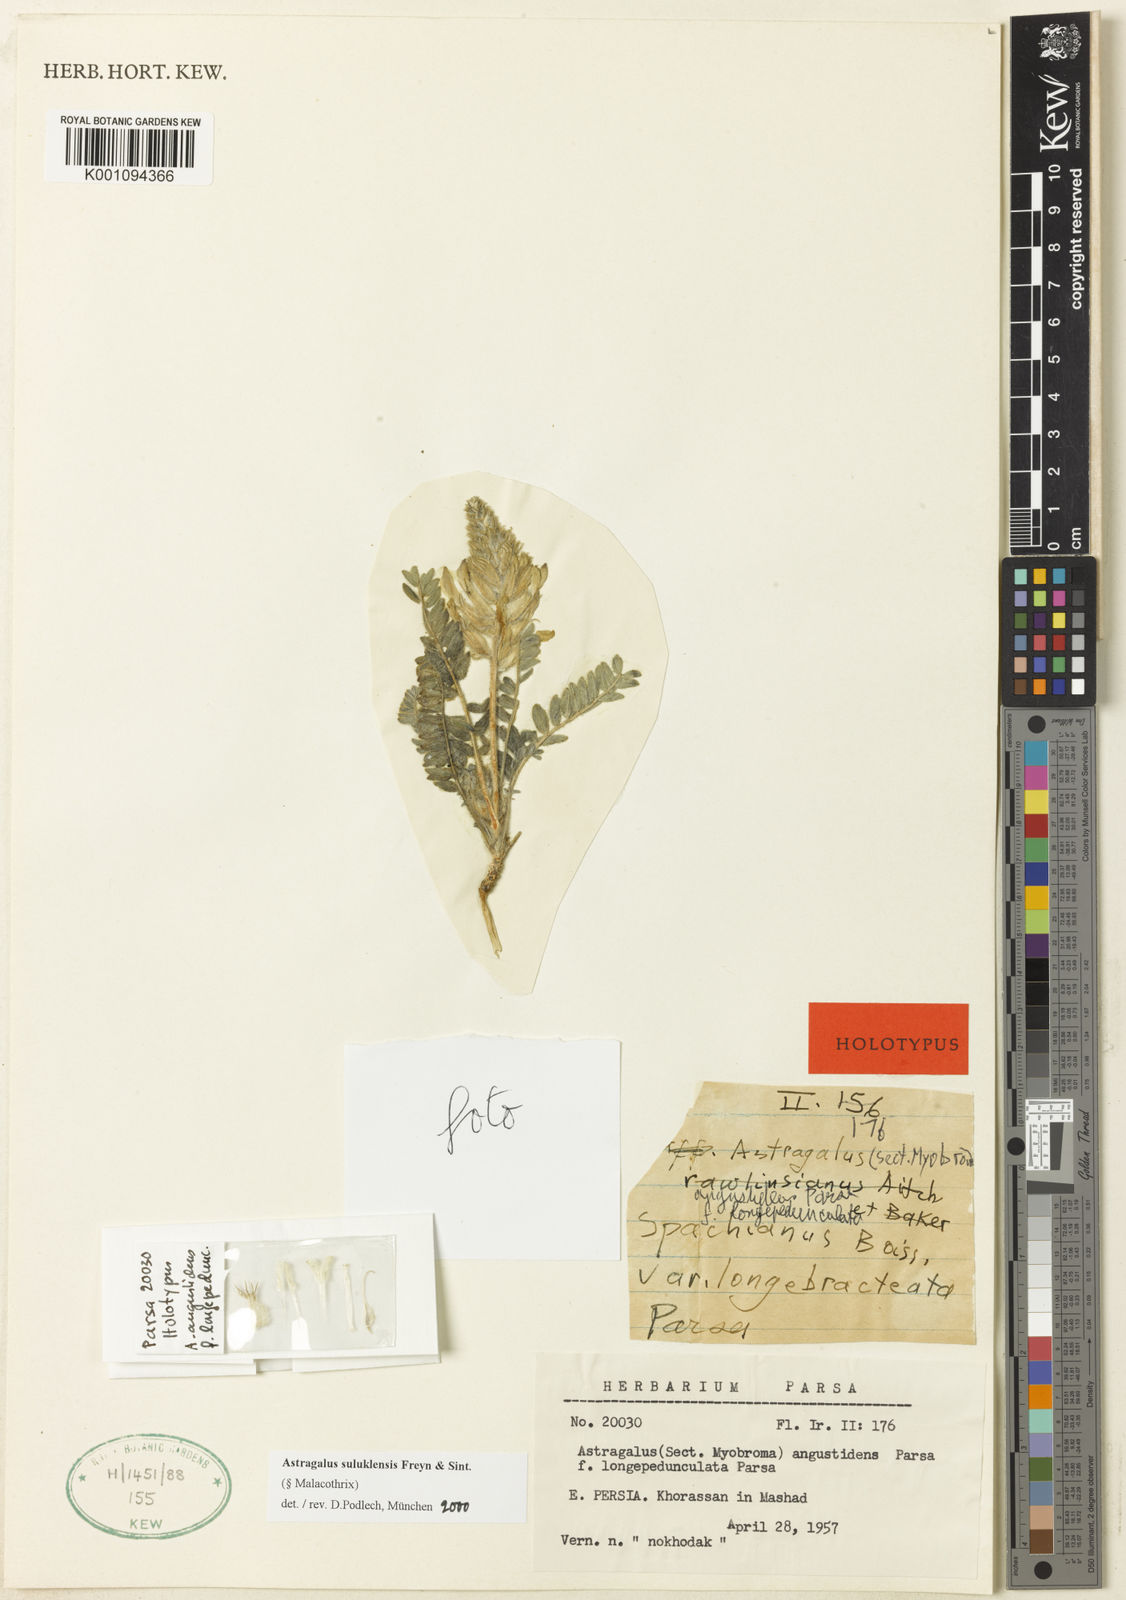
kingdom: Plantae
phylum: Tracheophyta
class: Magnoliopsida
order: Fabales
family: Fabaceae
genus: Astragalus
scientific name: Astragalus
